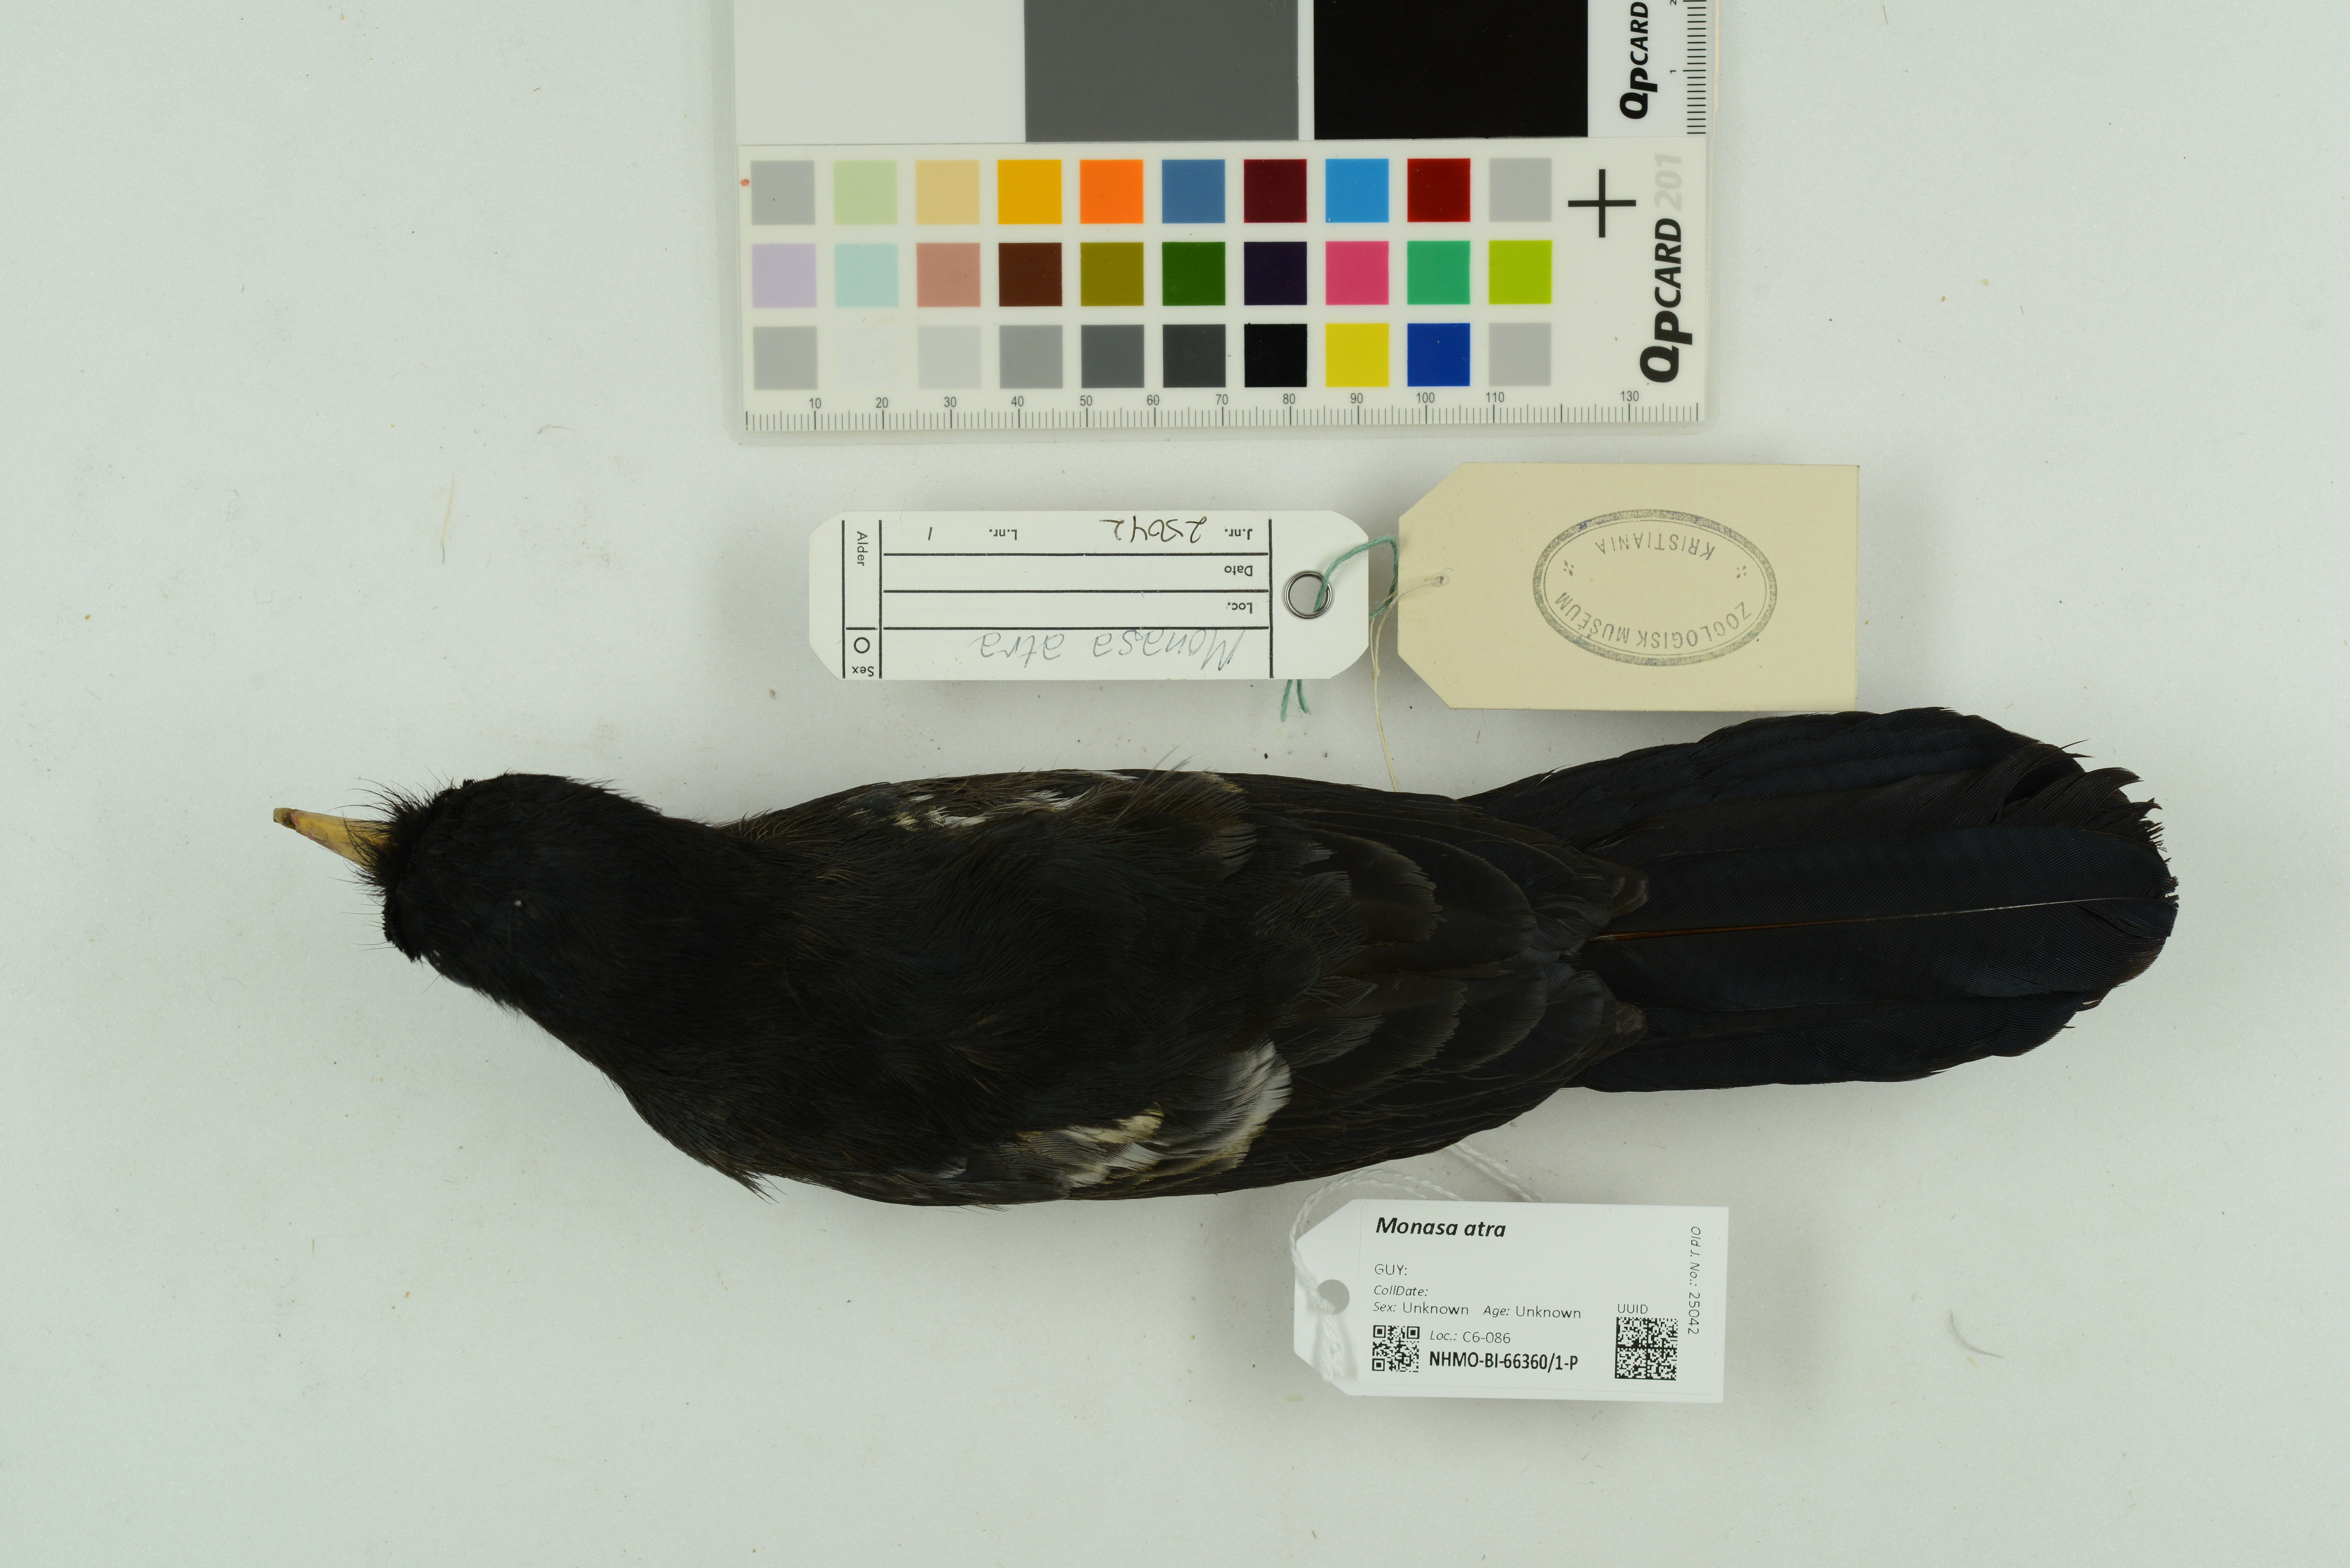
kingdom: Animalia
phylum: Chordata
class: Aves
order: Piciformes
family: Bucconidae
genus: Monasa
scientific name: Monasa atra
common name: Black nunbird
